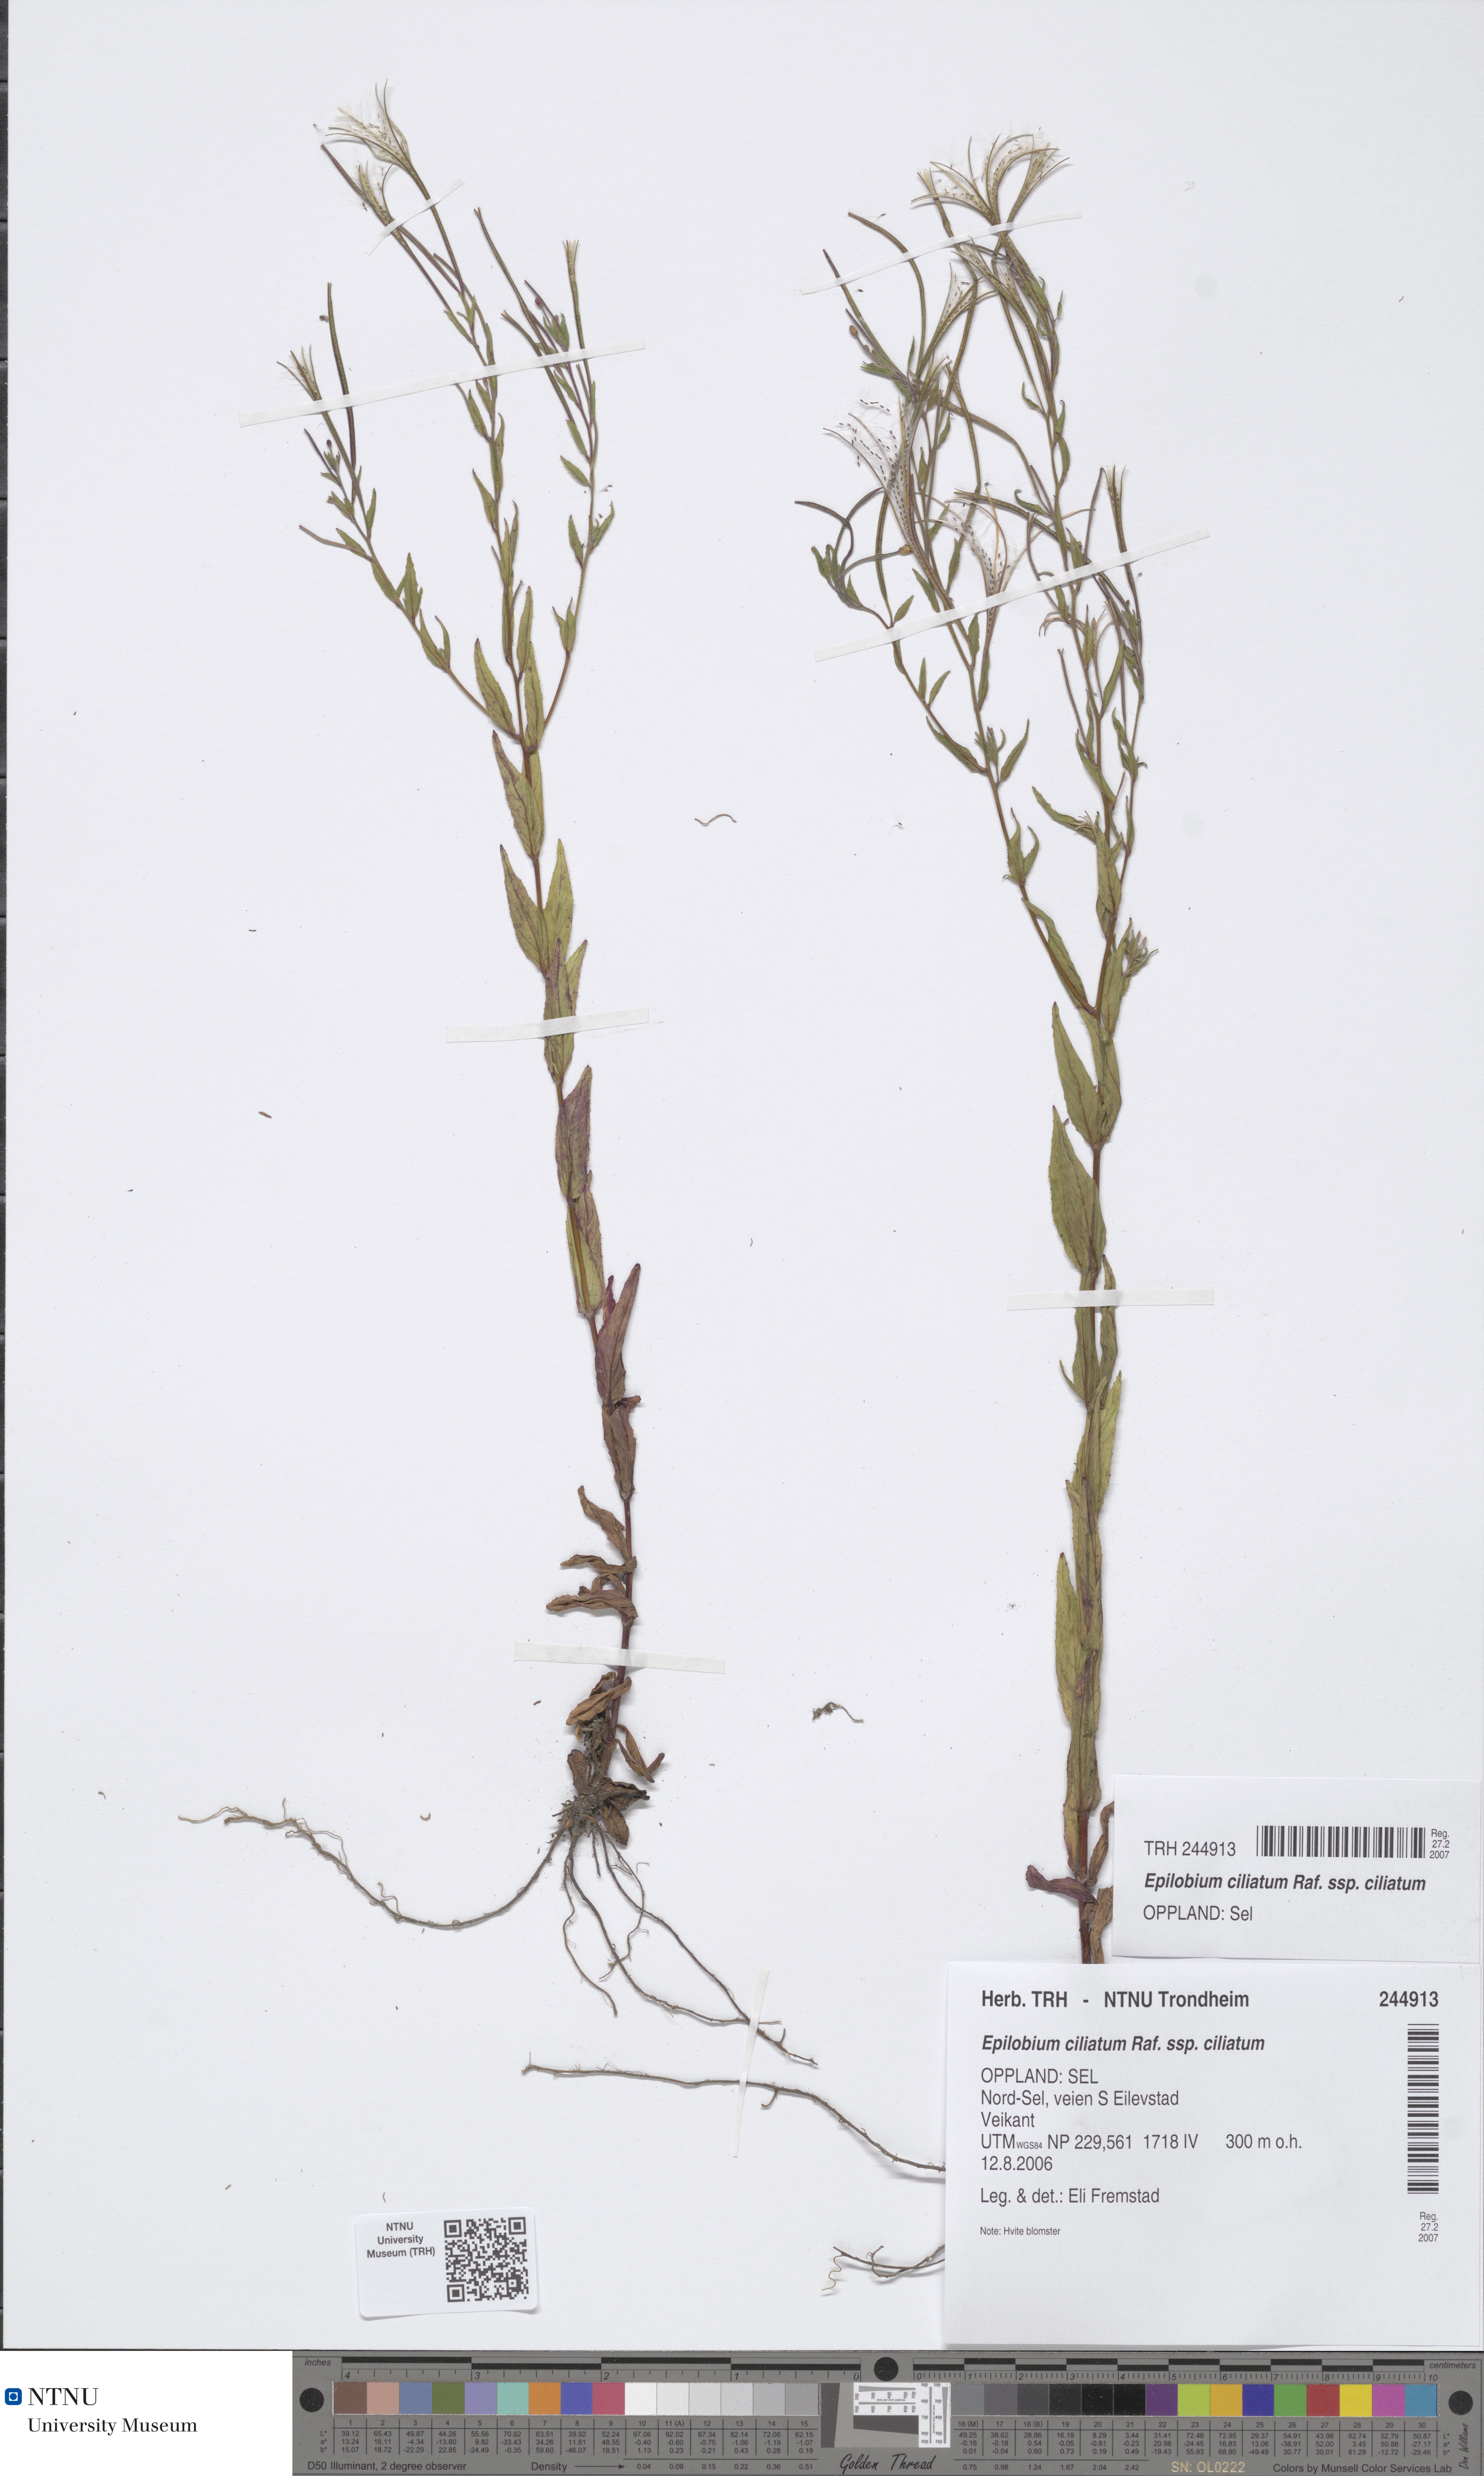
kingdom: Plantae
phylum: Tracheophyta
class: Magnoliopsida
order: Myrtales
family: Onagraceae
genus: Epilobium
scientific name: Epilobium ciliatum
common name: American willowherb
